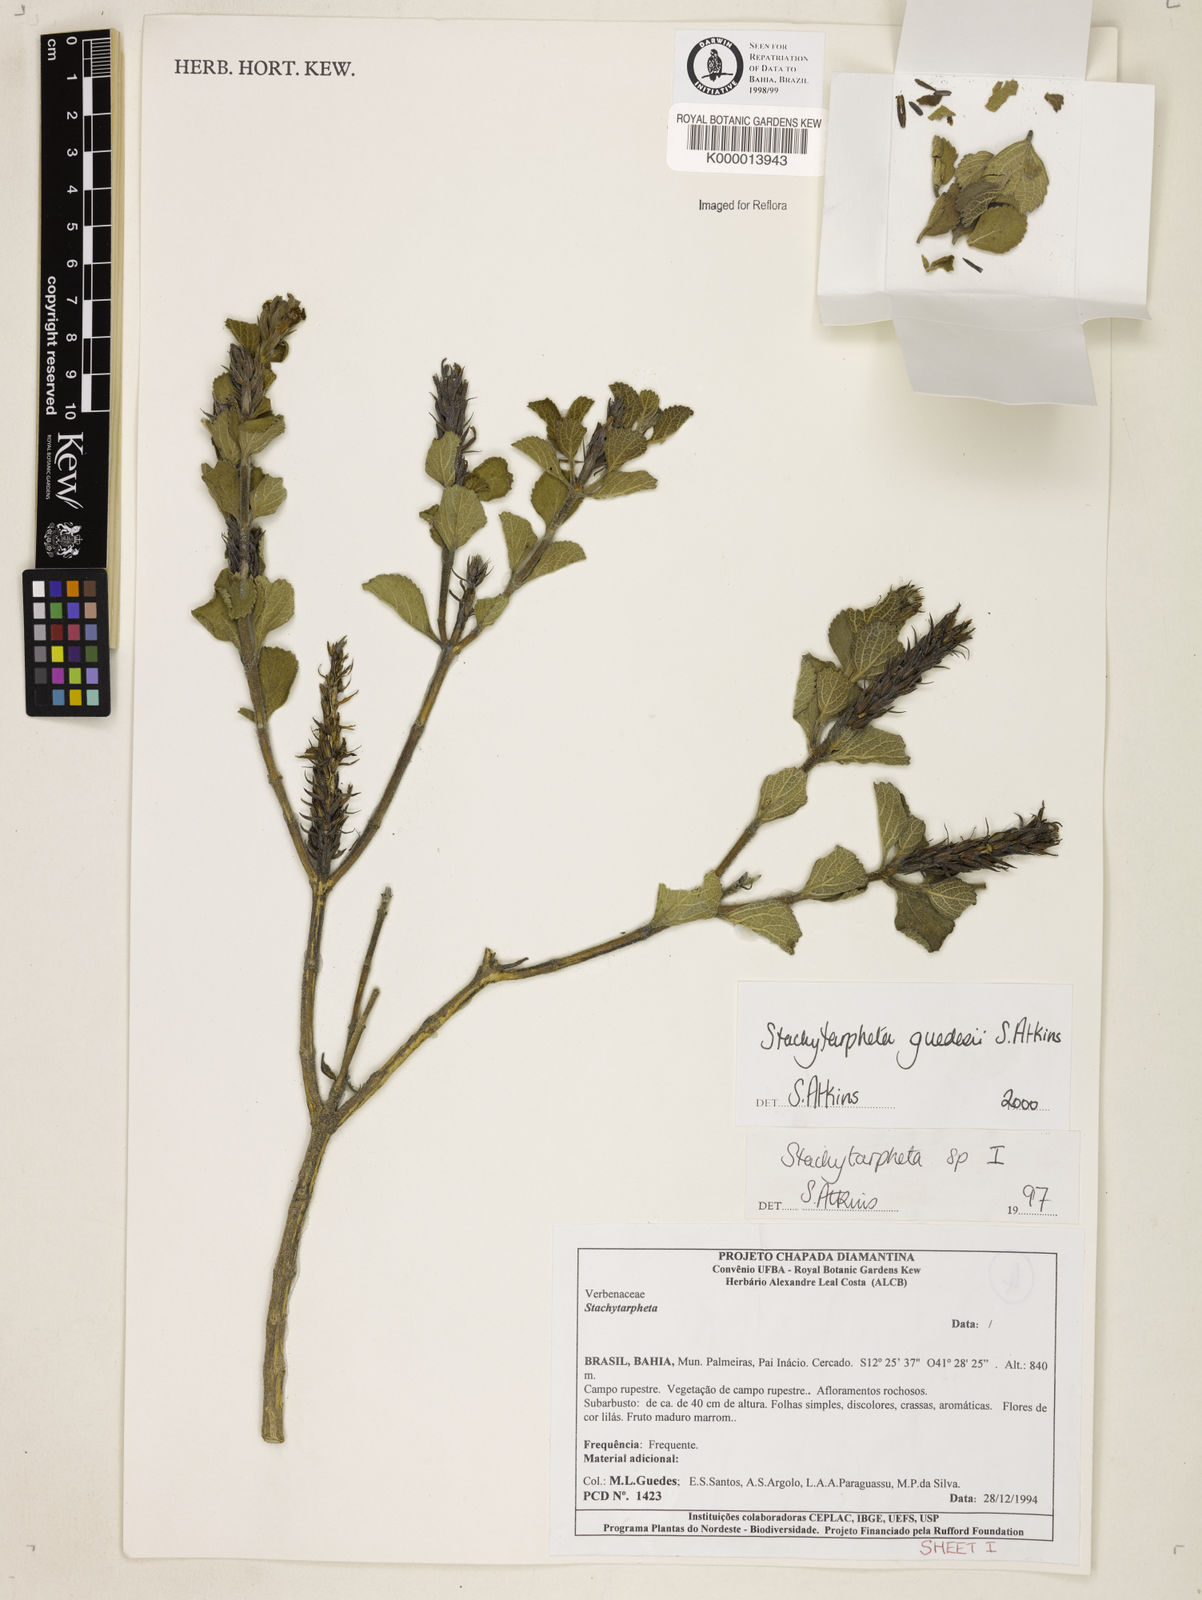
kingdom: Plantae
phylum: Tracheophyta
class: Magnoliopsida
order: Lamiales
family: Verbenaceae
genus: Stachytarpheta
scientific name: Stachytarpheta guedesii
